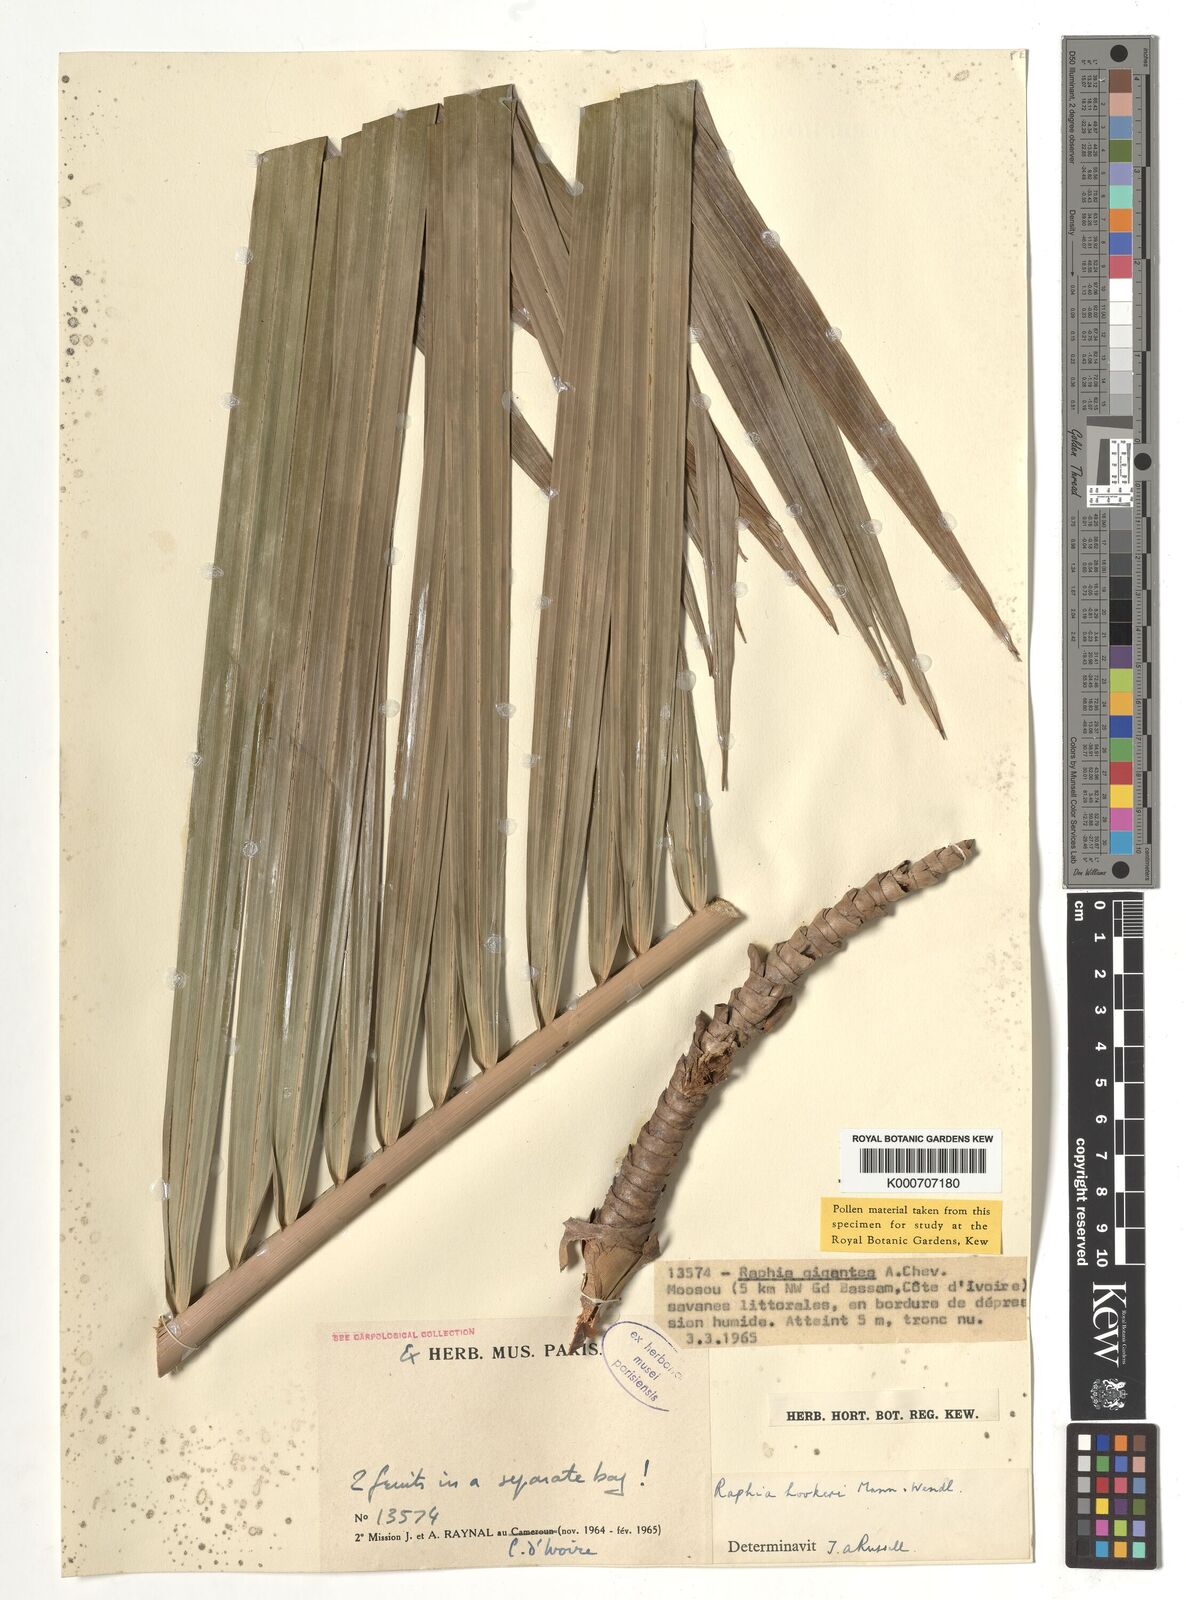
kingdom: Plantae
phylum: Tracheophyta
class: Liliopsida
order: Arecales
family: Arecaceae
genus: Raphia
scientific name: Raphia hookeri
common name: Wine palm
